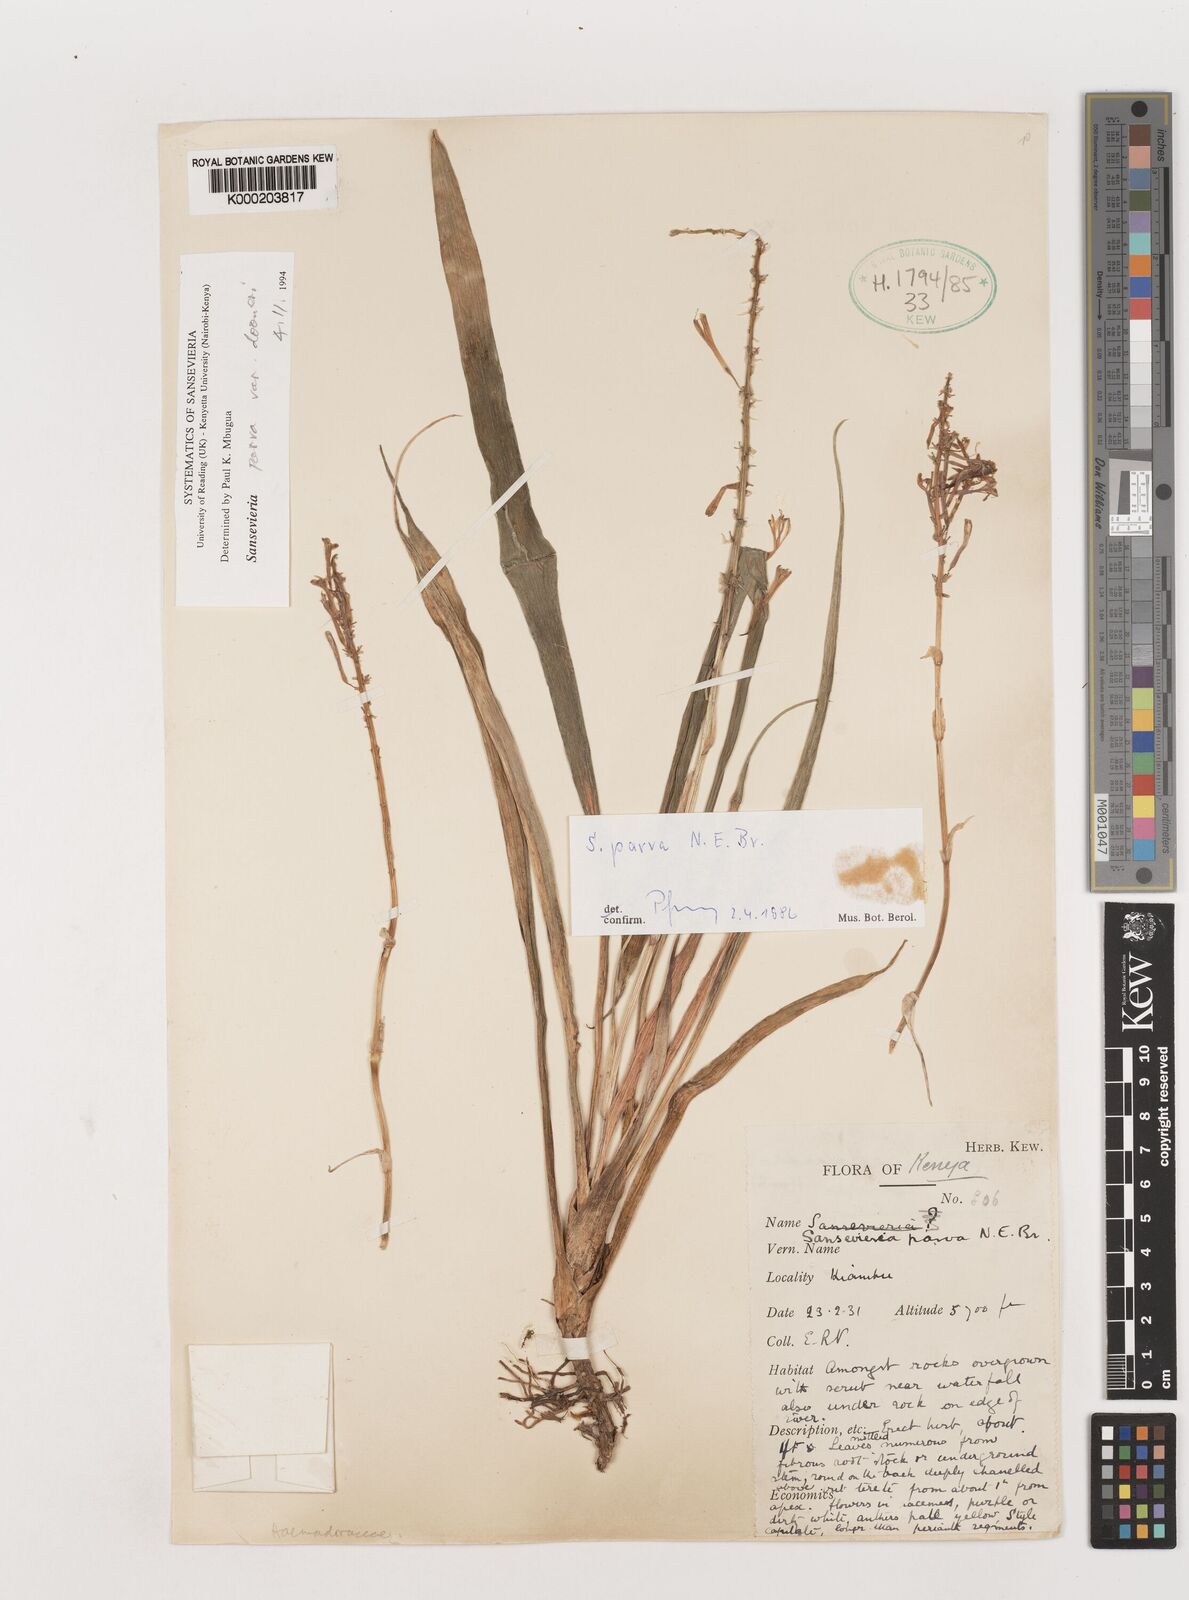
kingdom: Plantae
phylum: Tracheophyta
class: Liliopsida
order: Asparagales
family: Asparagaceae
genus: Dracaena
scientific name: Dracaena parva
